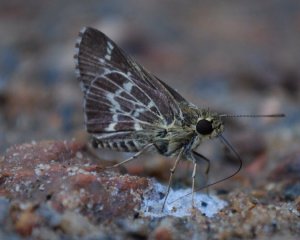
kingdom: Animalia
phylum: Arthropoda
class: Insecta
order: Lepidoptera
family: Hesperiidae
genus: Mastor
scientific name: Mastor aesculapius
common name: Lace-winged Roadside-Skipper
